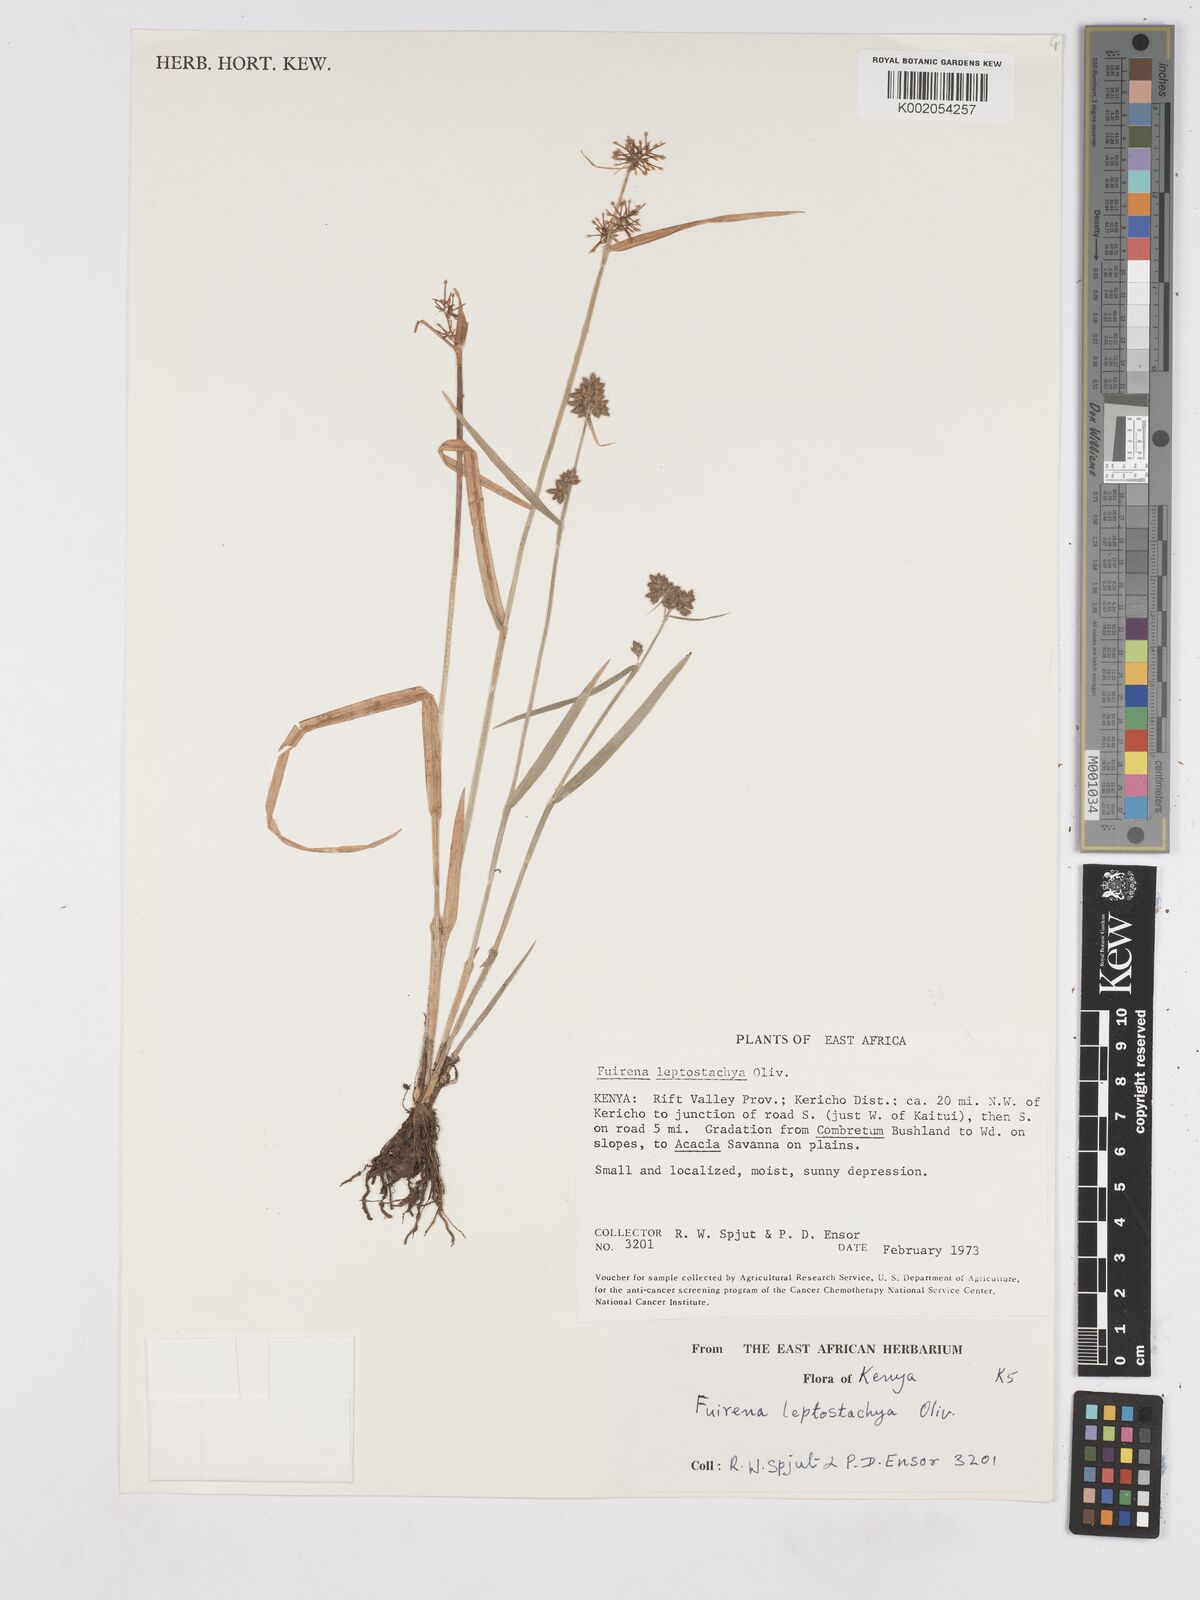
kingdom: Plantae
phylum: Tracheophyta
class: Liliopsida
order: Poales
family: Cyperaceae
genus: Fuirena
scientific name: Fuirena leptostachya
